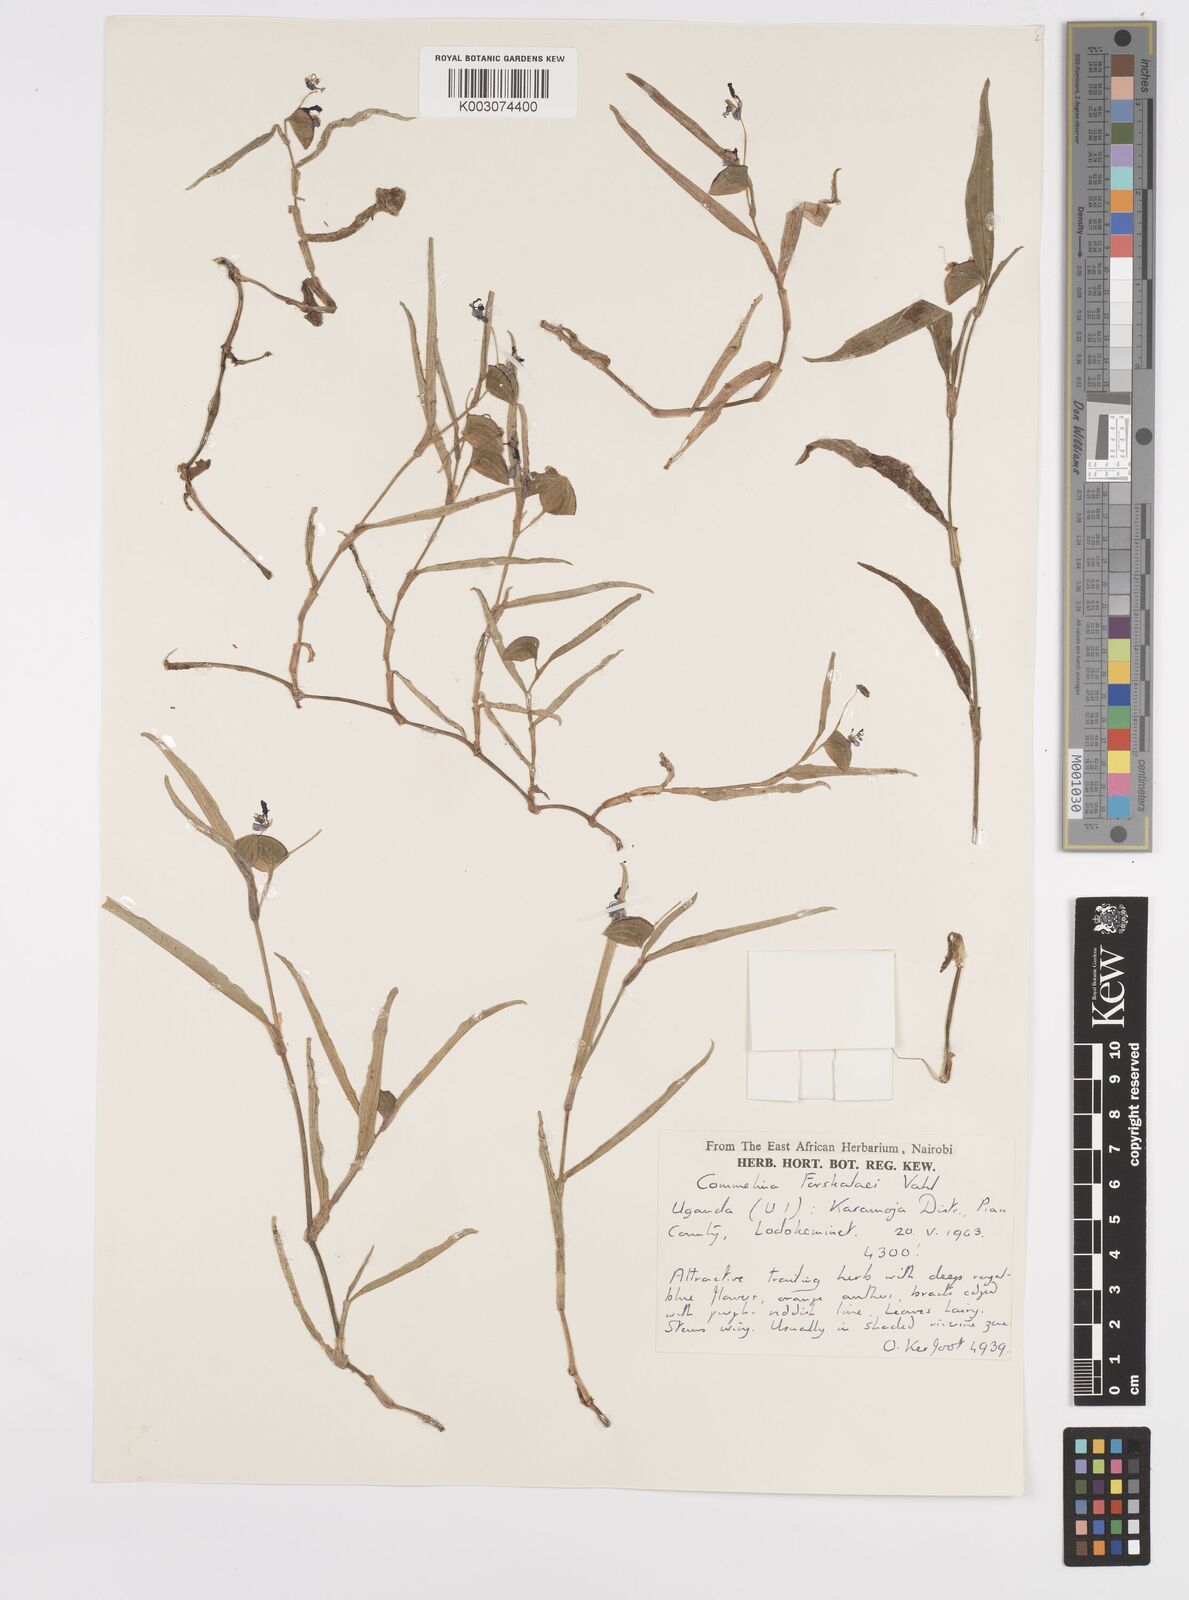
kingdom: Plantae
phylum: Tracheophyta
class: Liliopsida
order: Commelinales
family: Commelinaceae
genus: Commelina
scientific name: Commelina forskaolii
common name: Rat's ear
